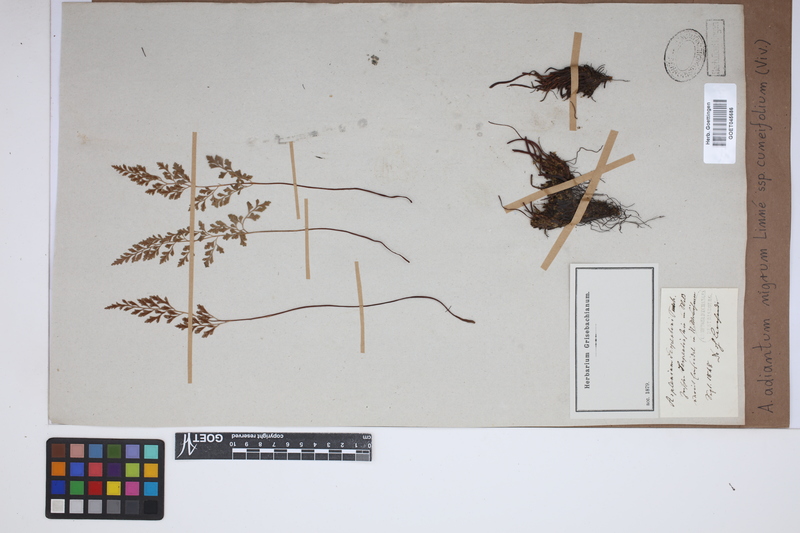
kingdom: Plantae
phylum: Tracheophyta
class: Polypodiopsida
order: Polypodiales
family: Aspleniaceae
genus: Asplenium
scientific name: Asplenium cuneifolium
